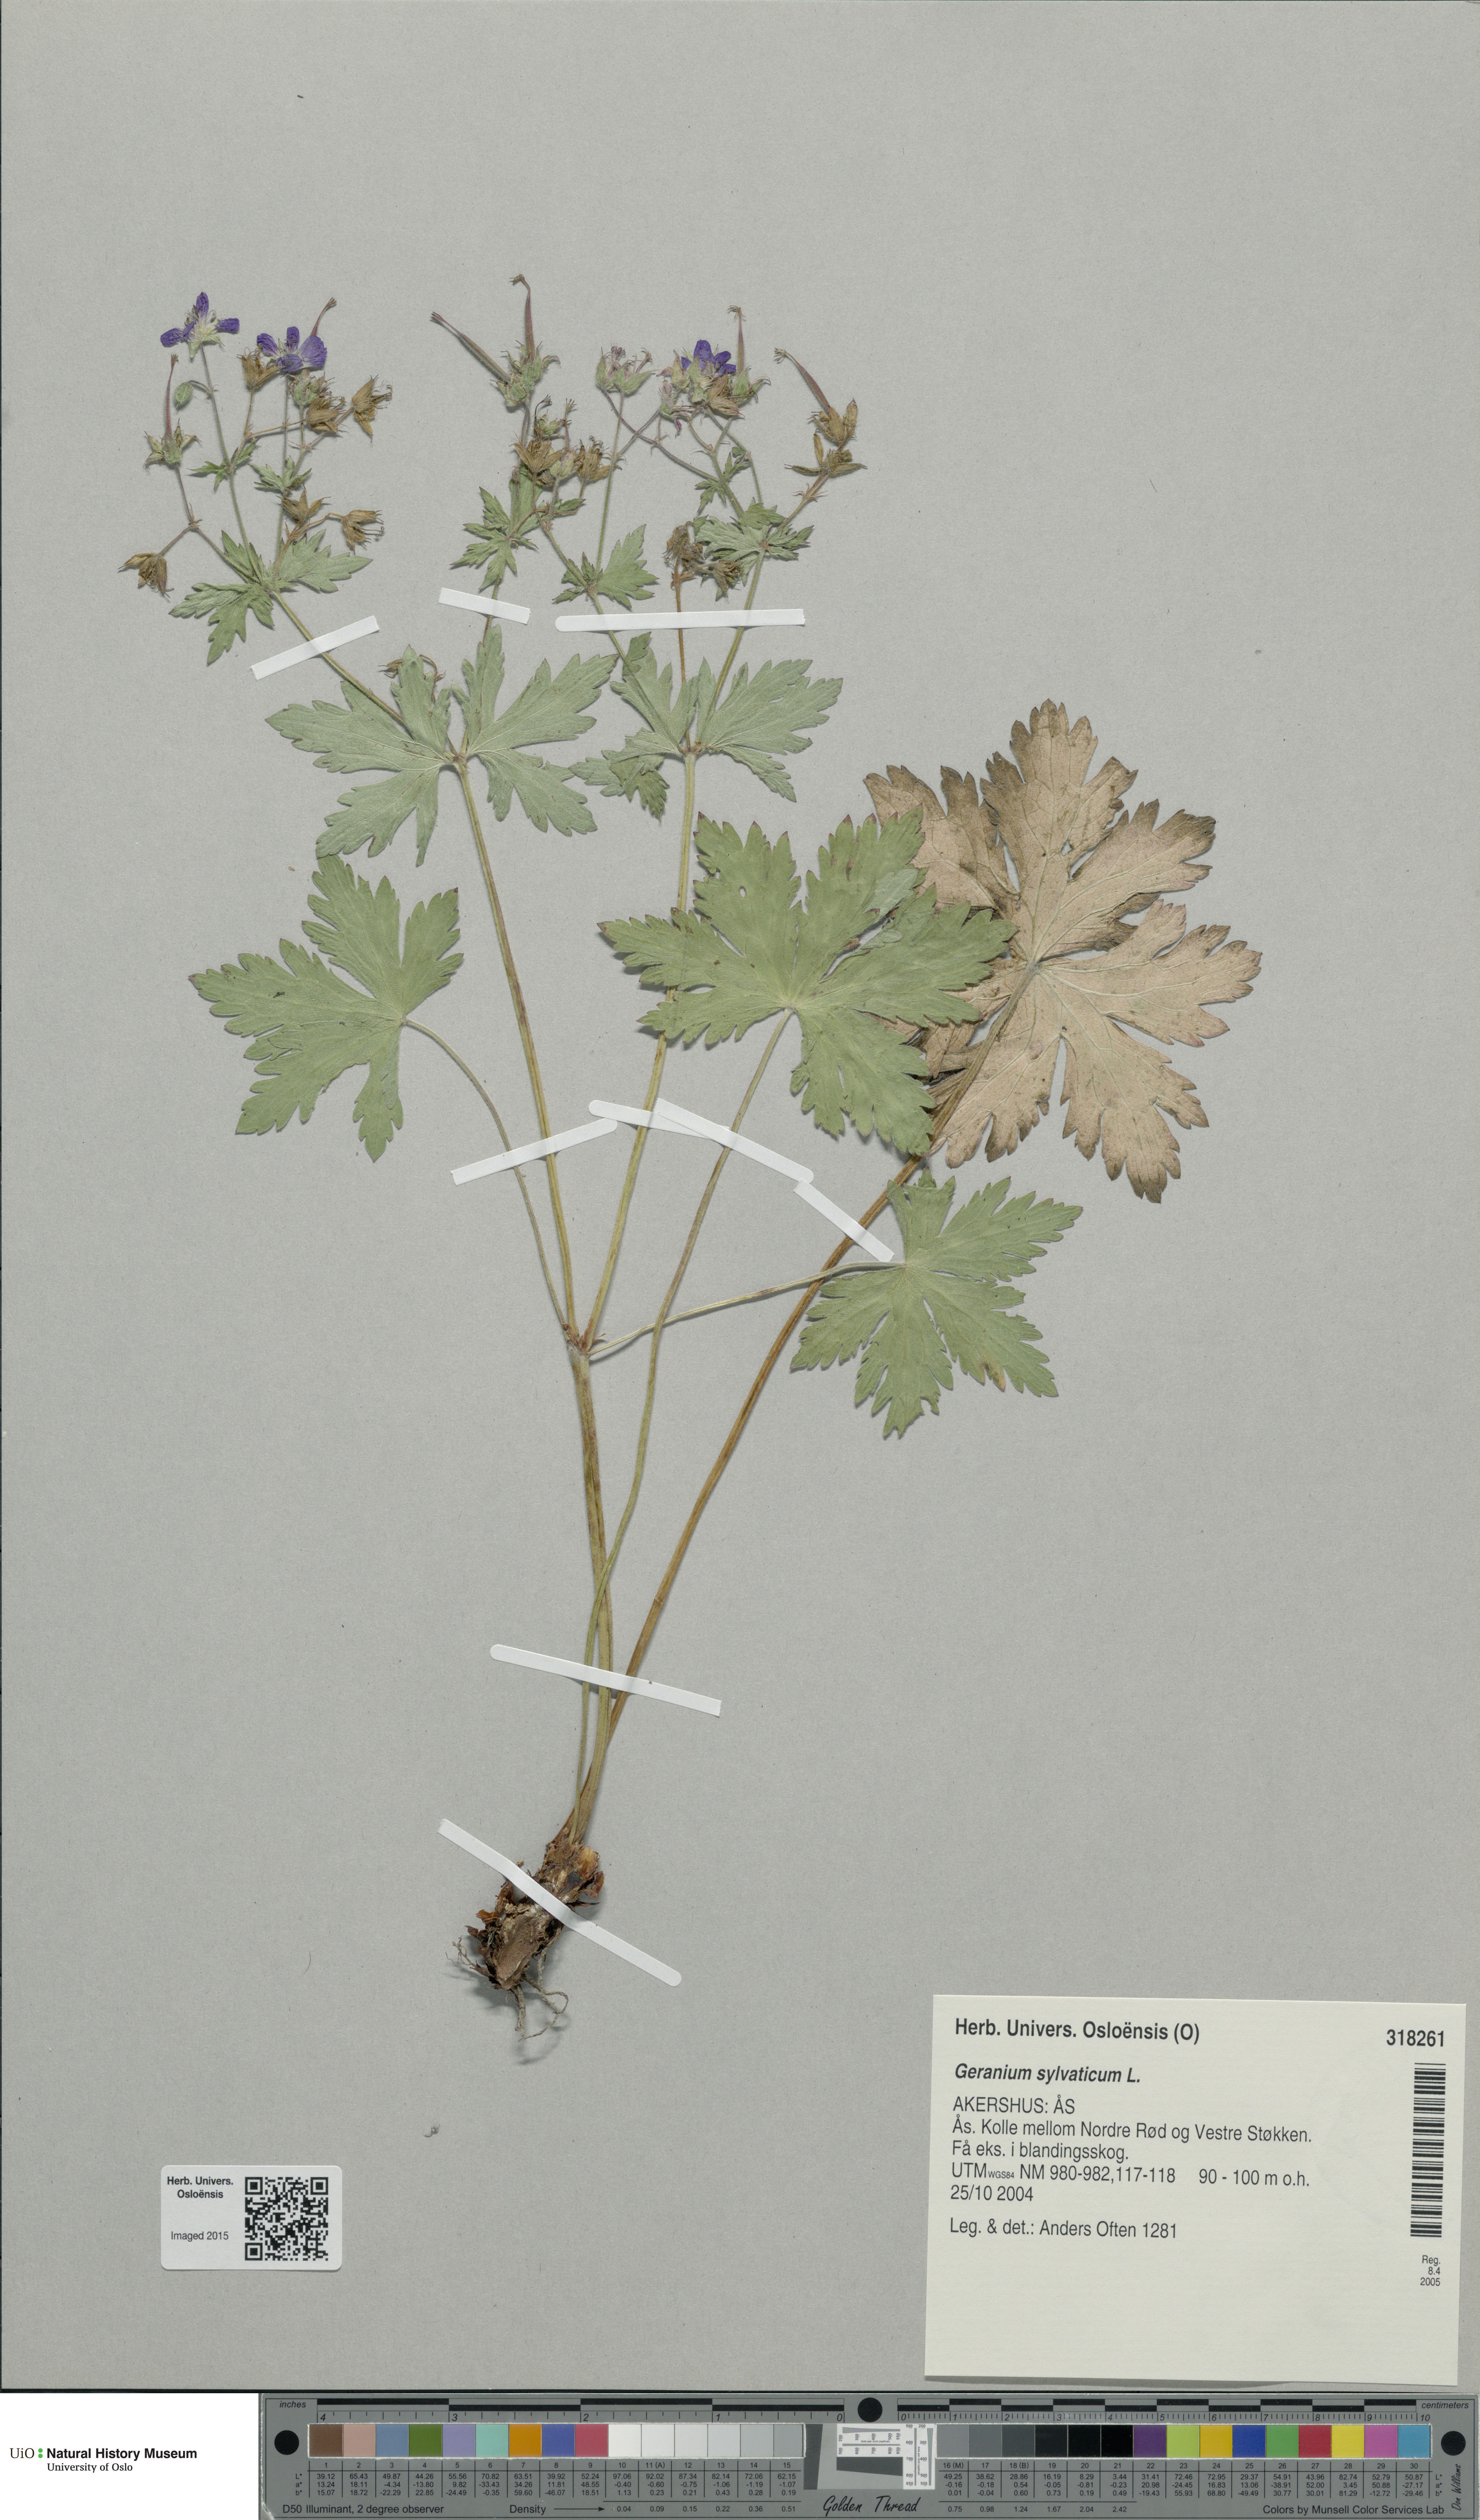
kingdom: Plantae
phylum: Tracheophyta
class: Magnoliopsida
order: Geraniales
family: Geraniaceae
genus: Geranium
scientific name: Geranium sylvaticum
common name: Wood crane's-bill
